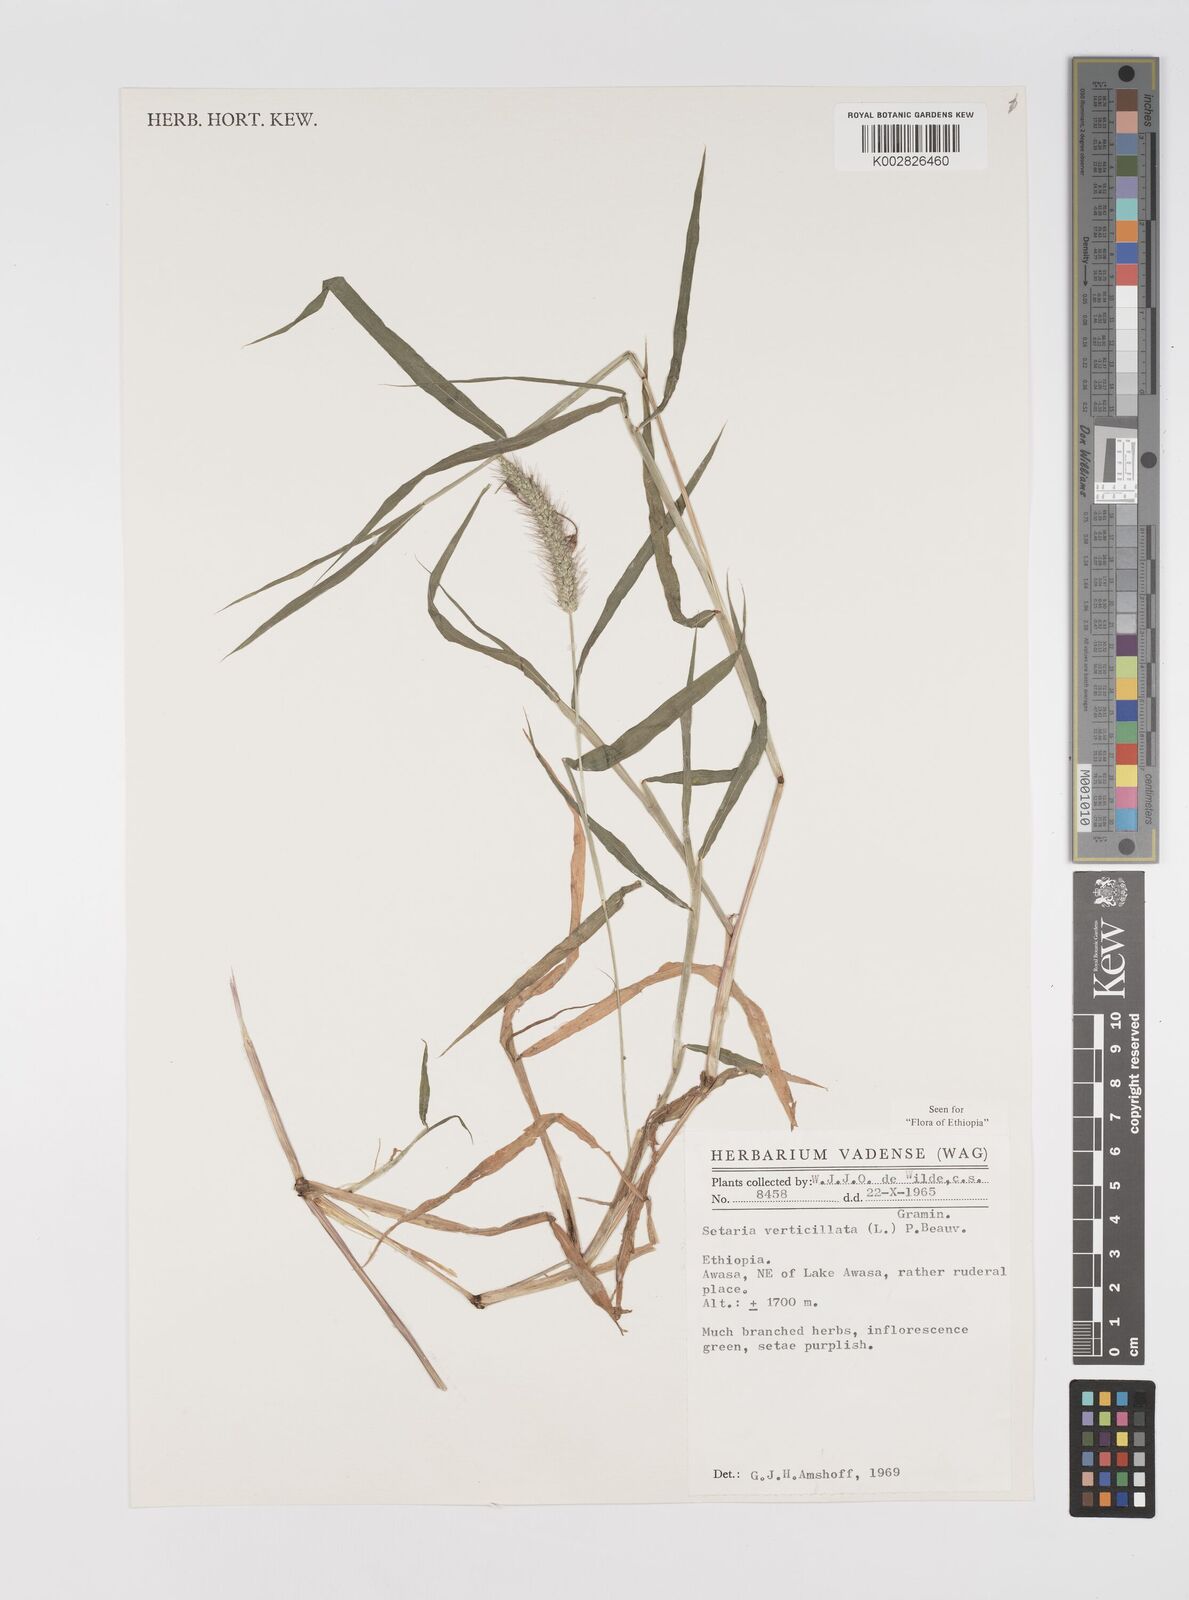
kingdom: Plantae
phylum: Tracheophyta
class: Liliopsida
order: Poales
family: Poaceae
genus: Setaria
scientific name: Setaria verticillata
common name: Hooked bristlegrass
